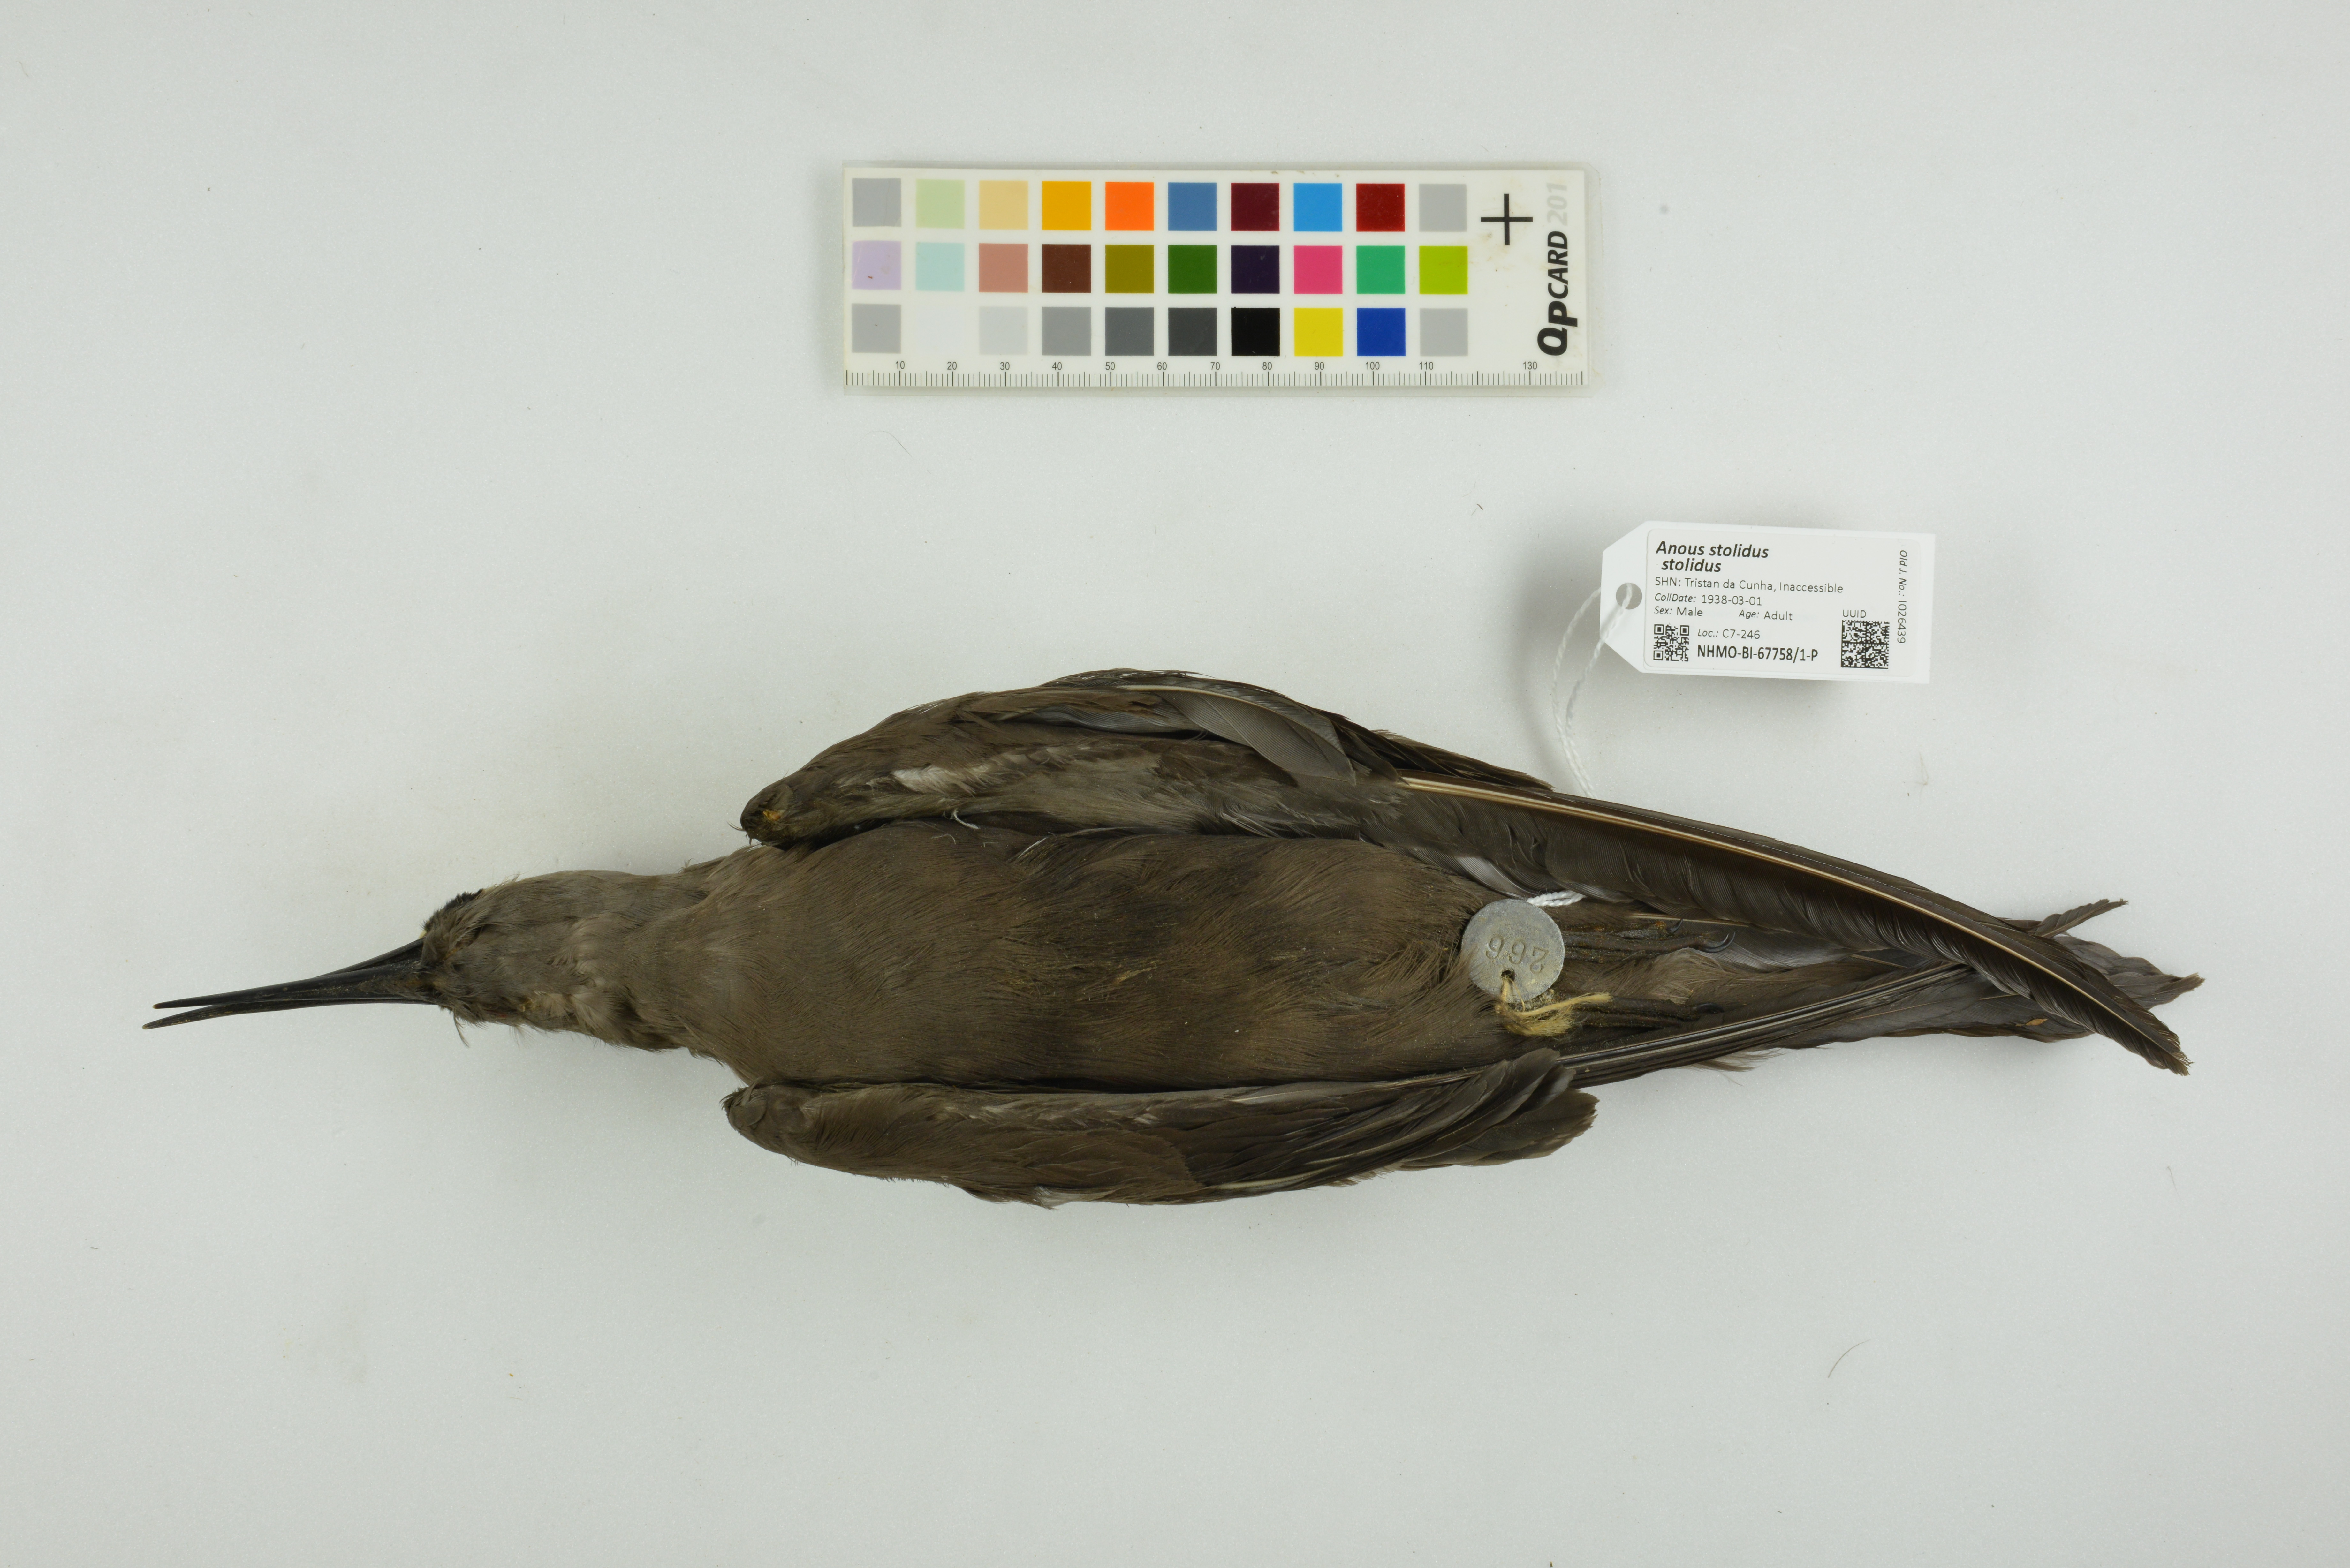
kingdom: Animalia
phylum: Chordata
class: Aves
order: Charadriiformes
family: Laridae
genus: Anous
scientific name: Anous stolidus
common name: Brown noddy
